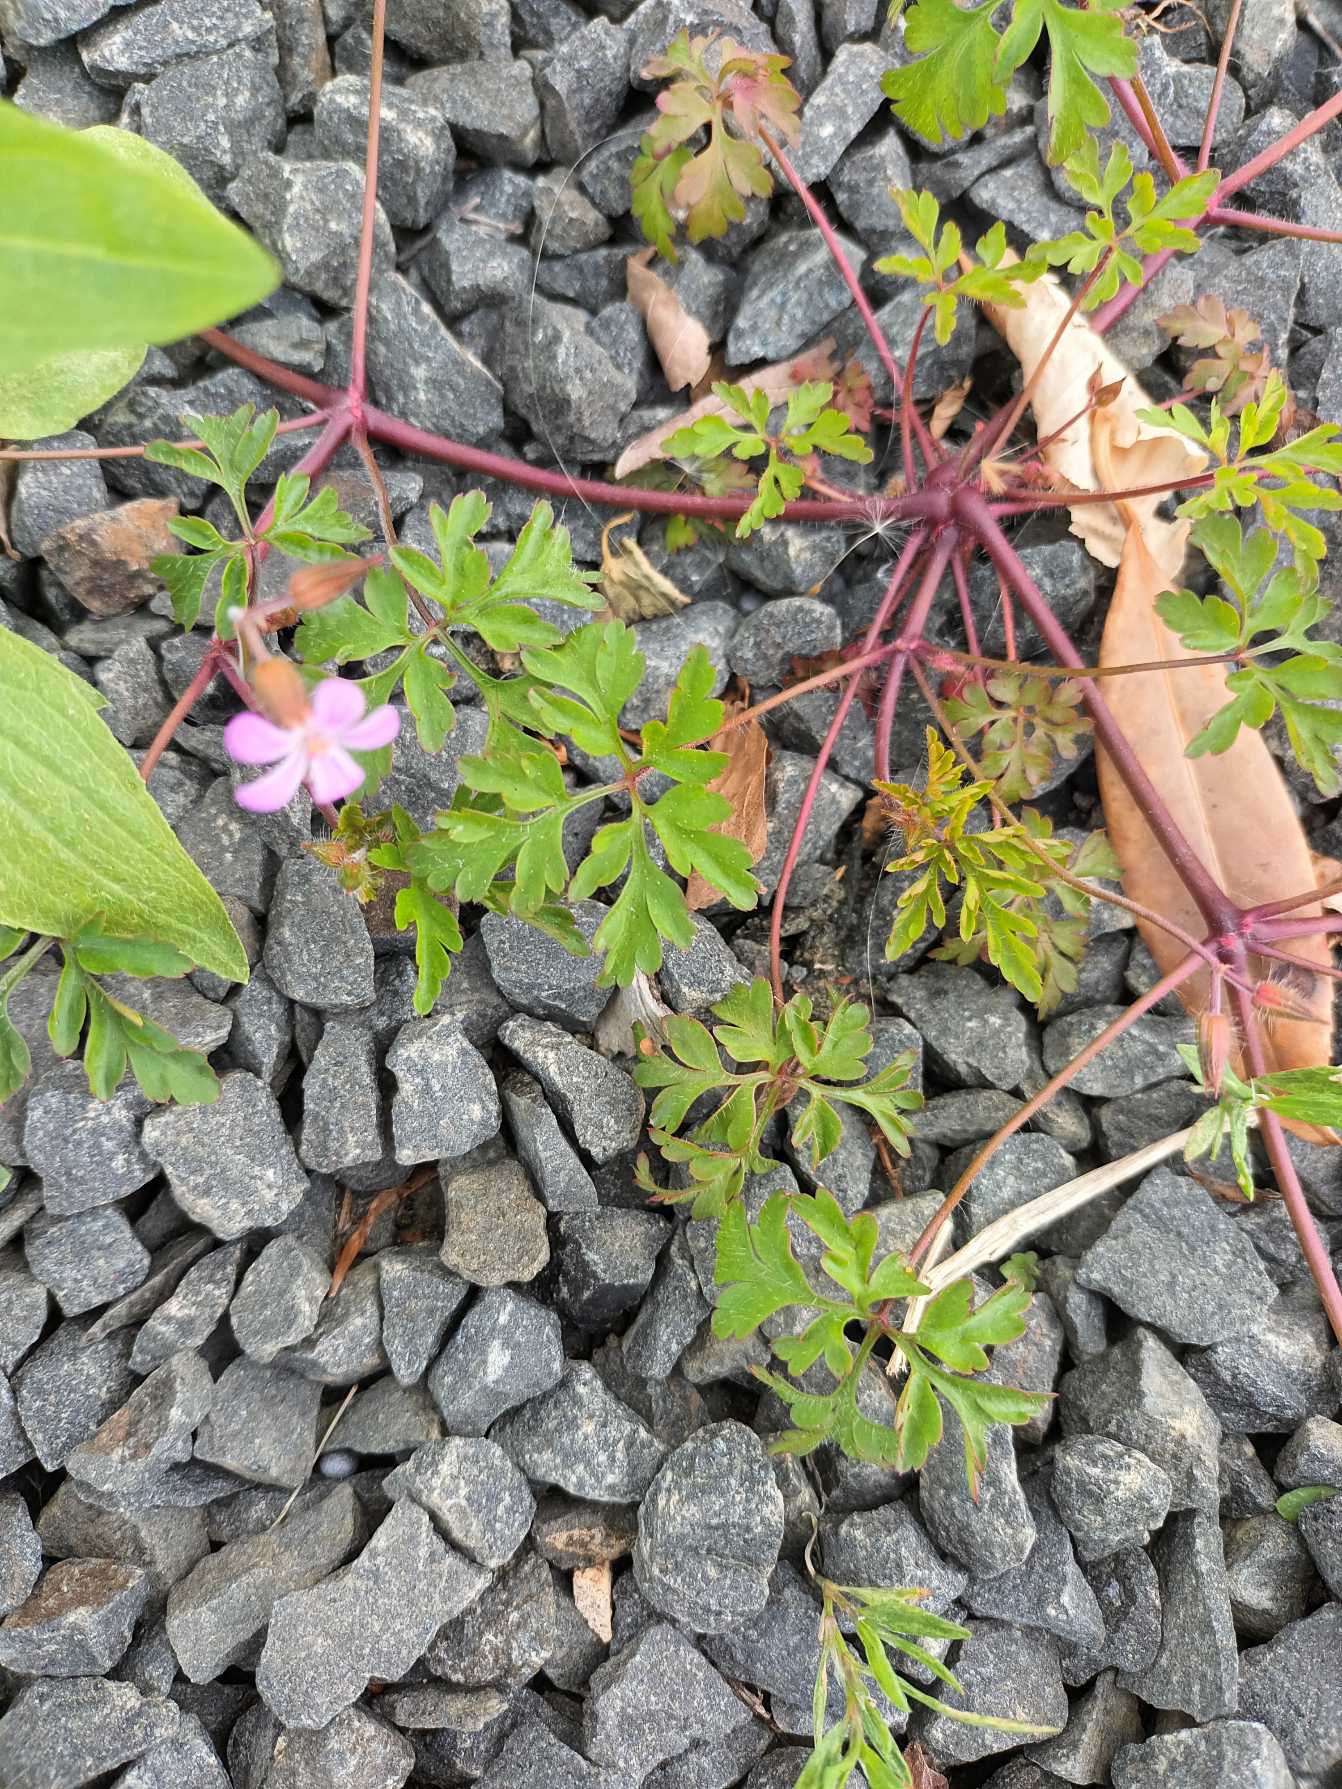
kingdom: Plantae
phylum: Tracheophyta
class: Magnoliopsida
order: Geraniales
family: Geraniaceae
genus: Geranium
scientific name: Geranium robertianum
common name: Stinkende storkenæb
